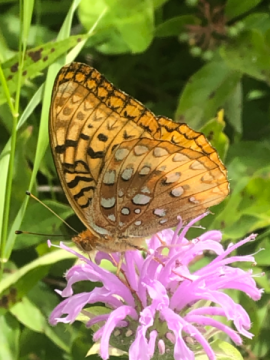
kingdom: Animalia
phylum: Arthropoda
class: Insecta
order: Lepidoptera
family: Nymphalidae
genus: Speyeria
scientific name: Speyeria cybele
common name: Great Spangled Fritillary
